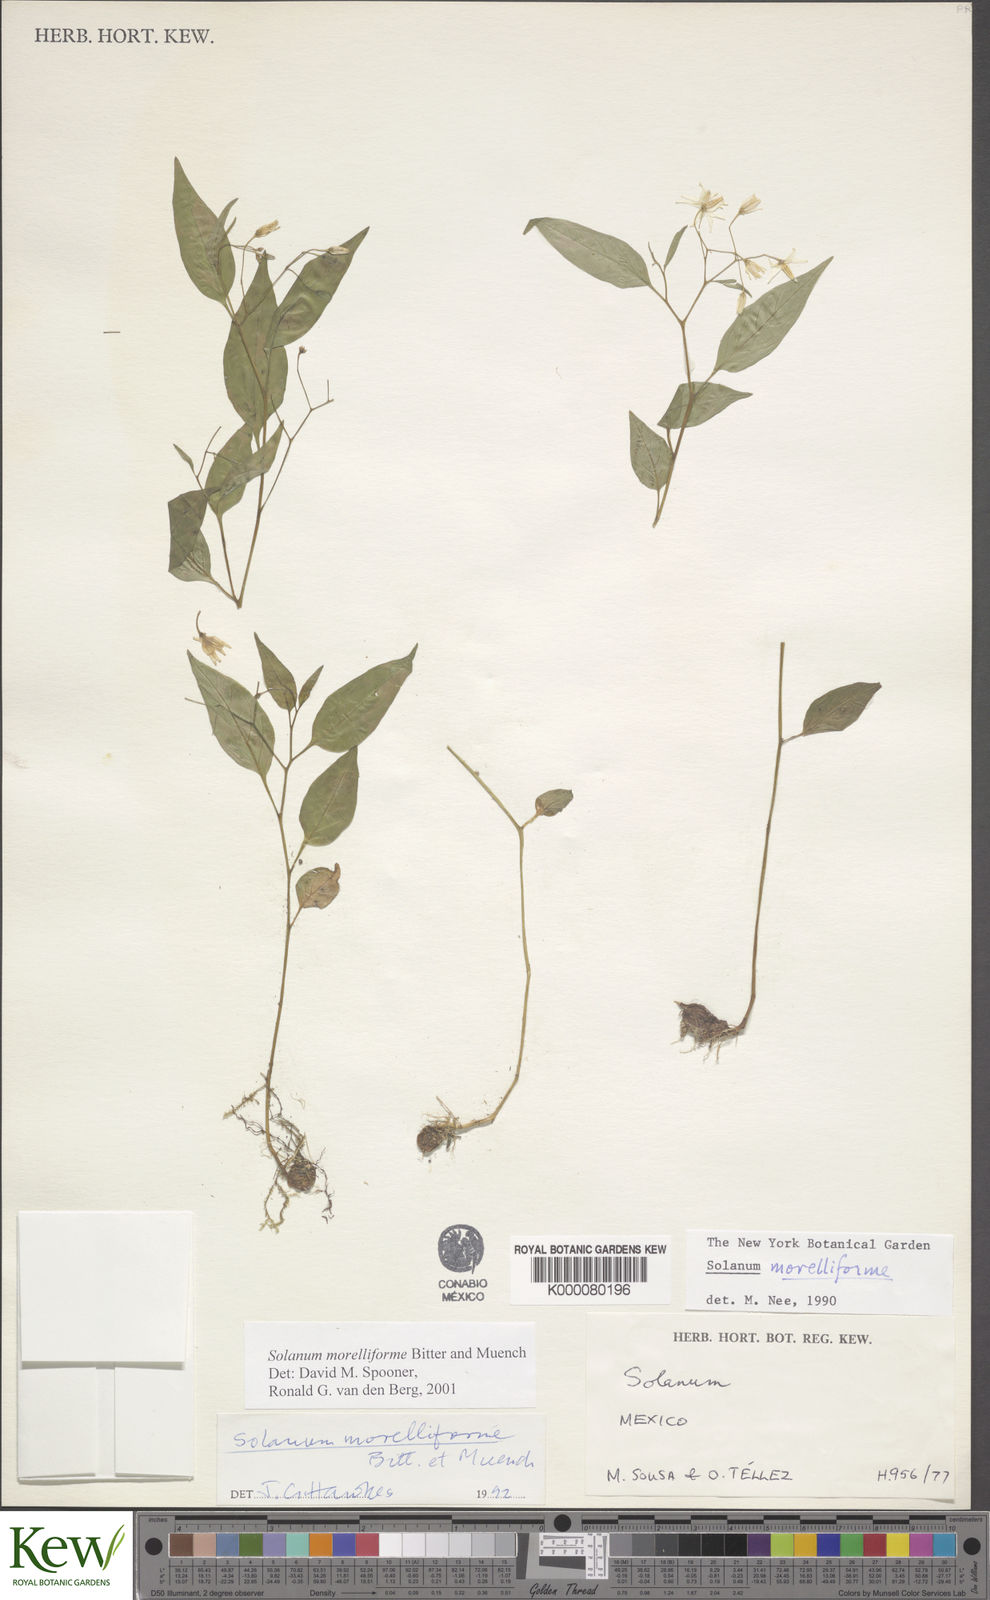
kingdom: Plantae
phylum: Tracheophyta
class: Magnoliopsida
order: Solanales
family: Solanaceae
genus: Solanum
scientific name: Solanum morelliforme
